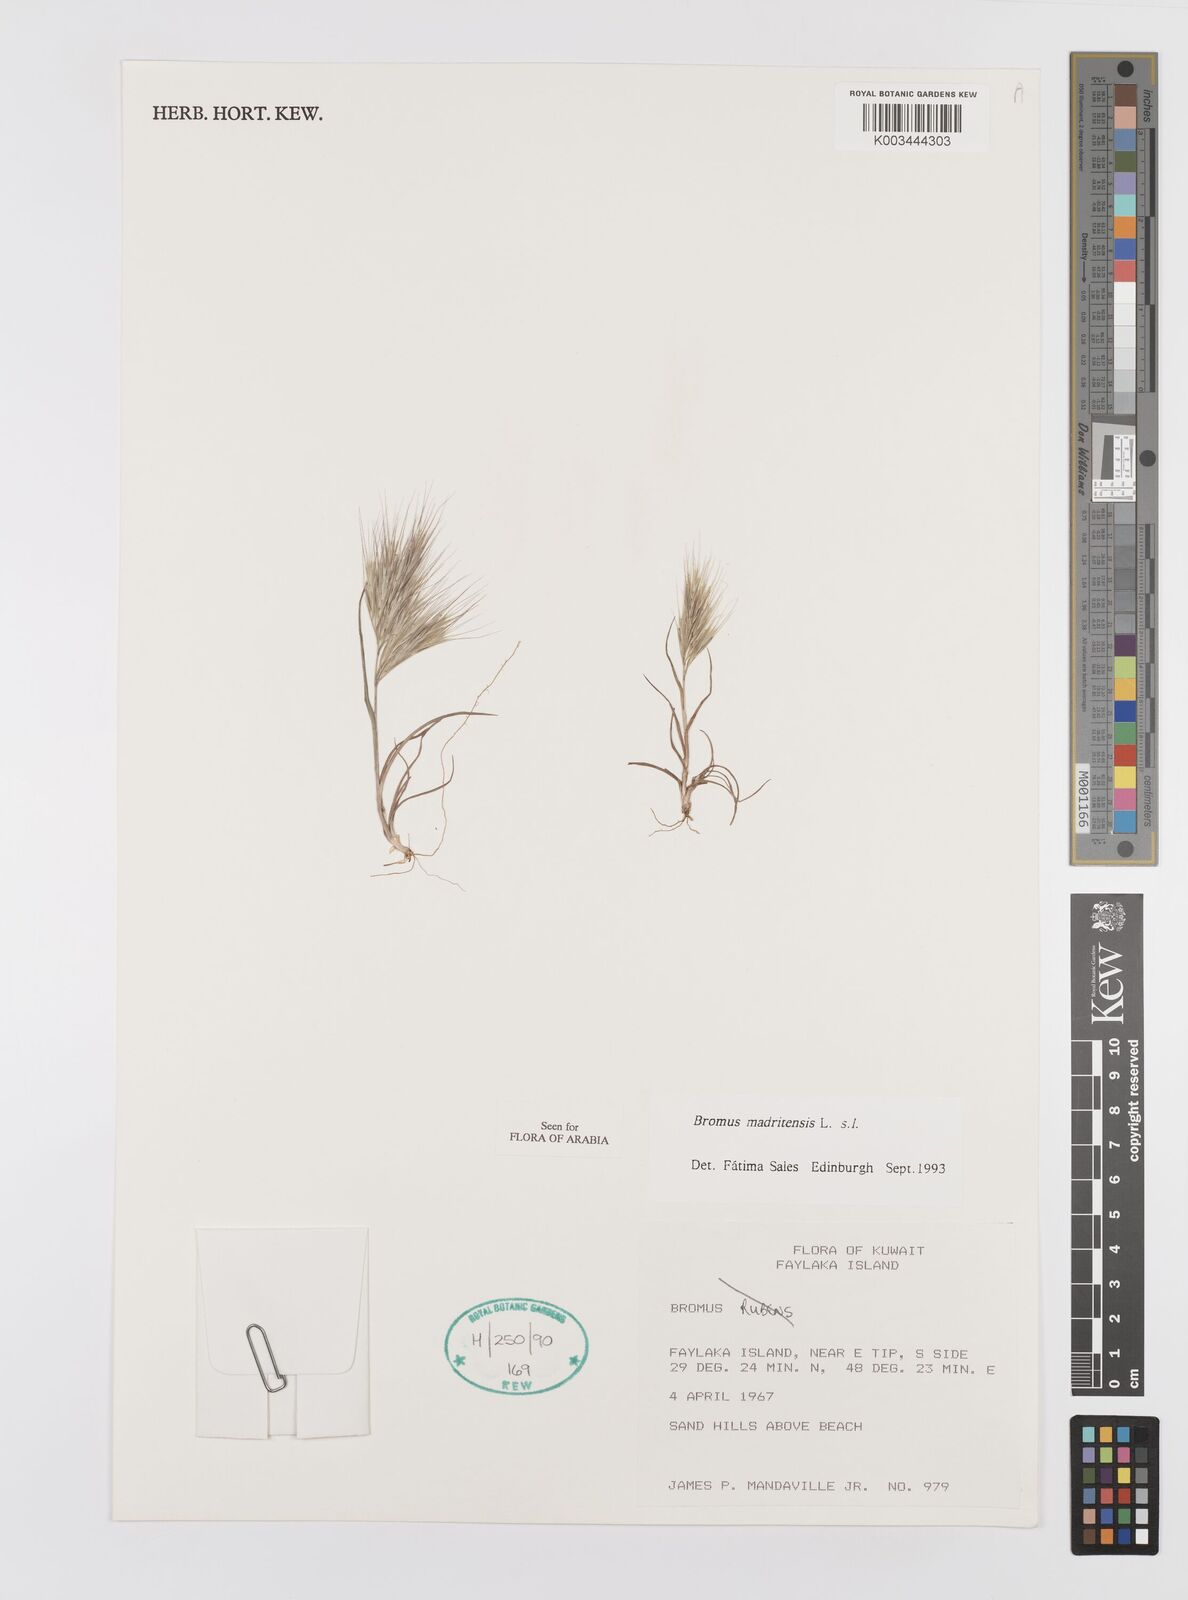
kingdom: Plantae
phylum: Tracheophyta
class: Liliopsida
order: Poales
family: Poaceae
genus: Bromus
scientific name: Bromus madritensis
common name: Compact brome
